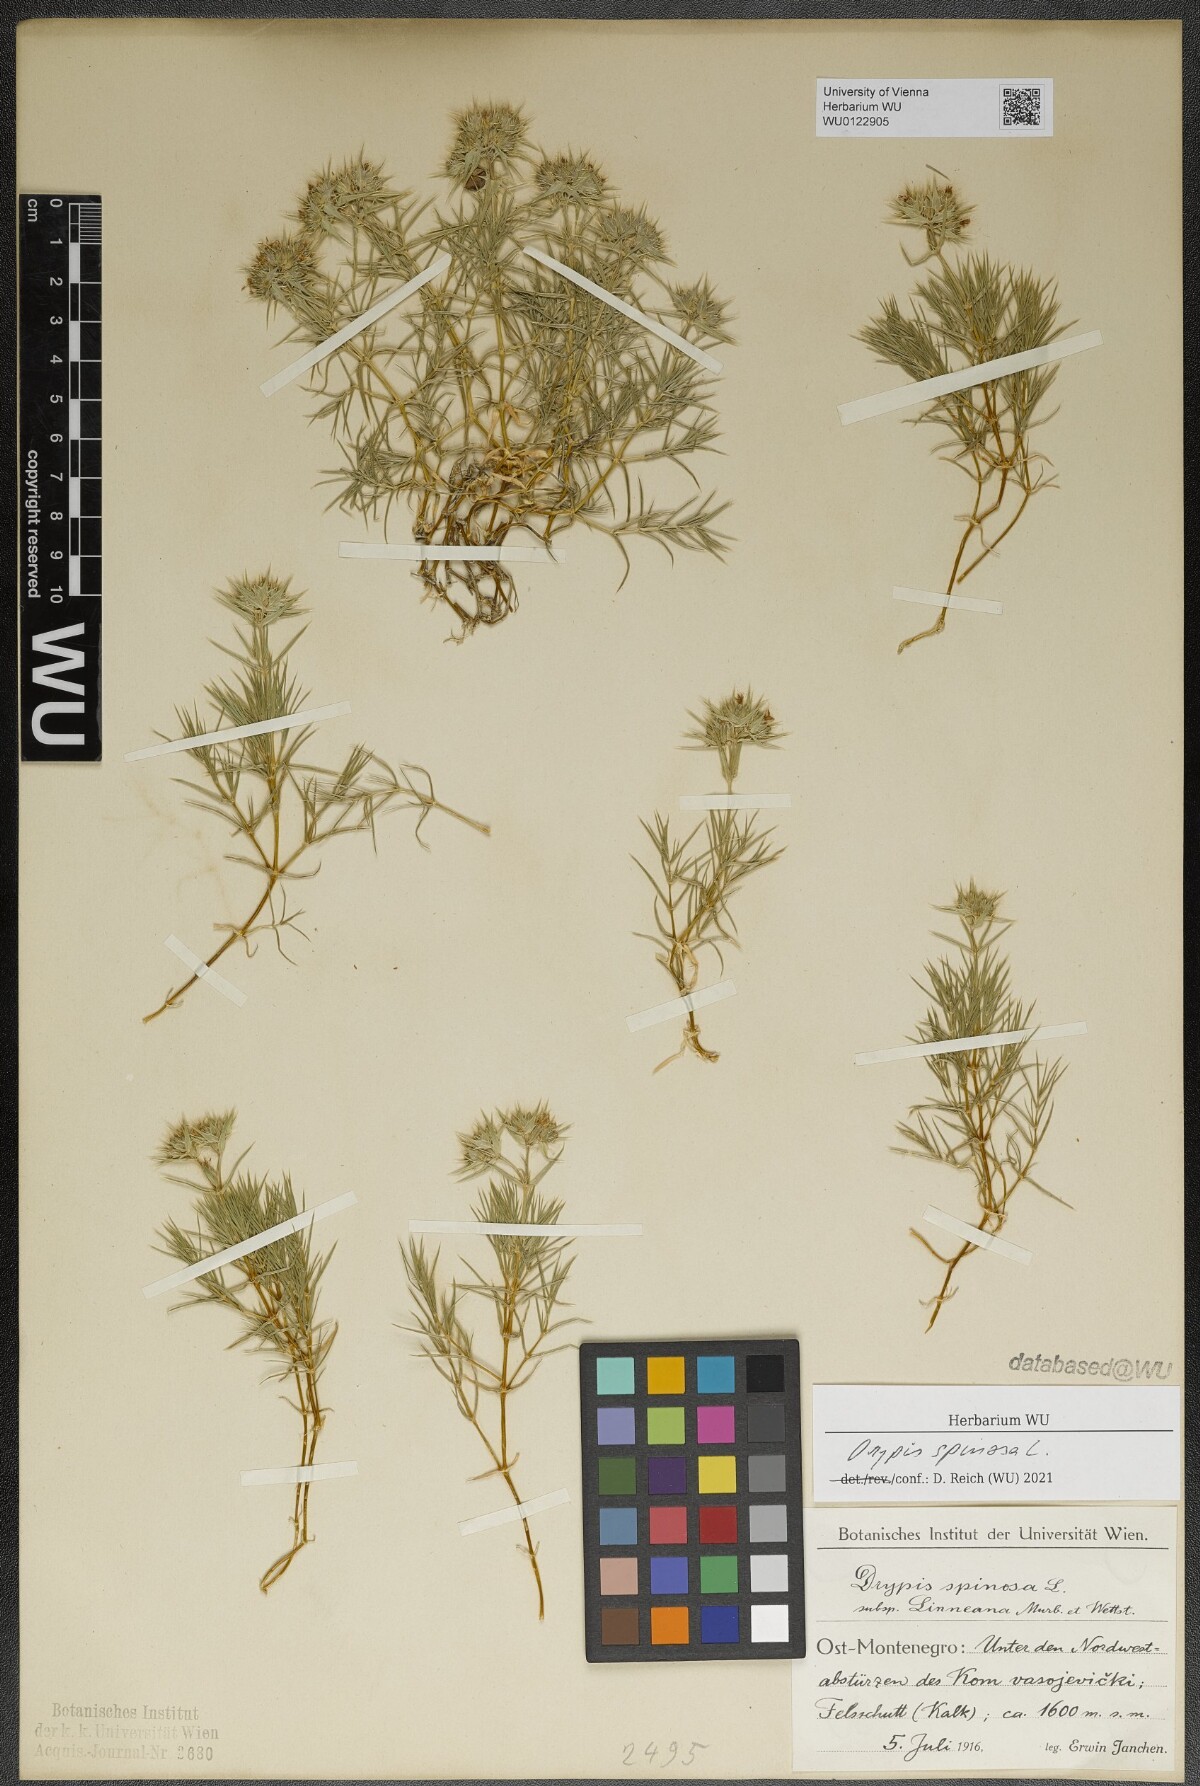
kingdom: Plantae
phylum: Tracheophyta
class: Magnoliopsida
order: Caryophyllales
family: Caryophyllaceae
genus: Drypis
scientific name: Drypis spinosa
